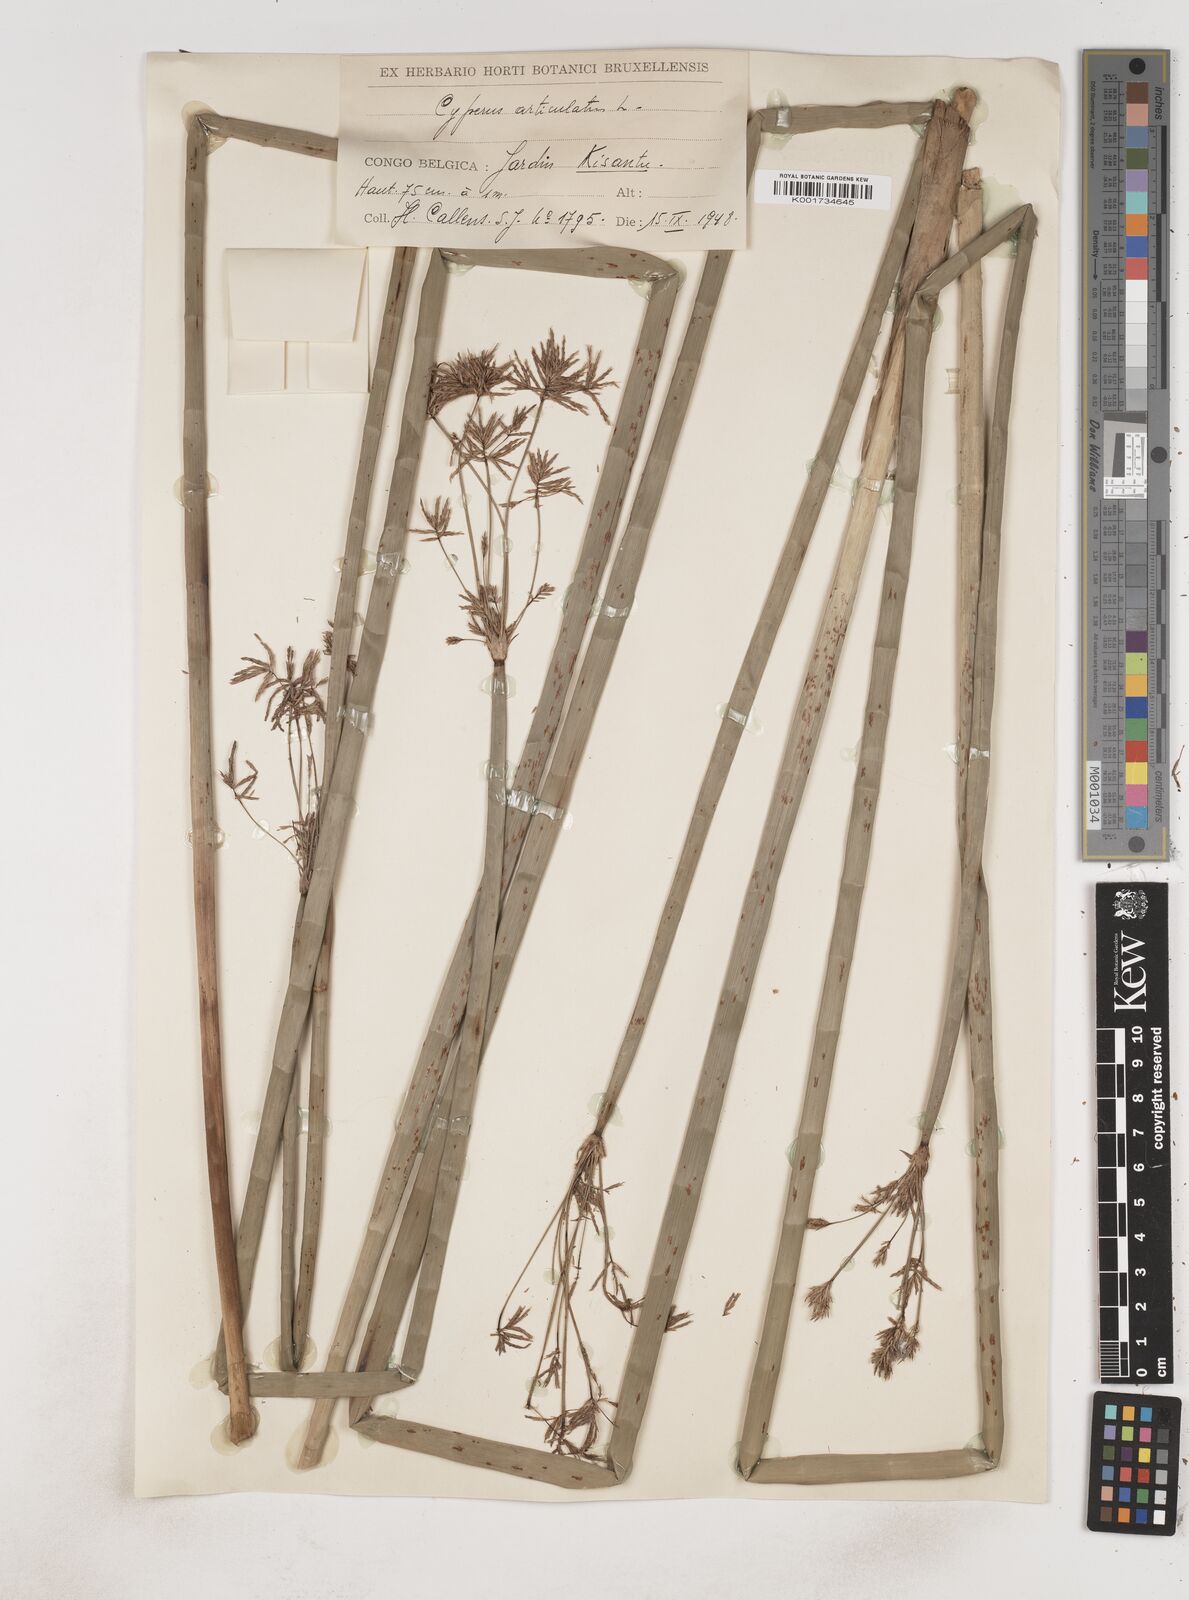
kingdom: Plantae
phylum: Tracheophyta
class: Liliopsida
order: Poales
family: Cyperaceae
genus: Cyperus
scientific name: Cyperus articulatus
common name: Jointed flatsedge
